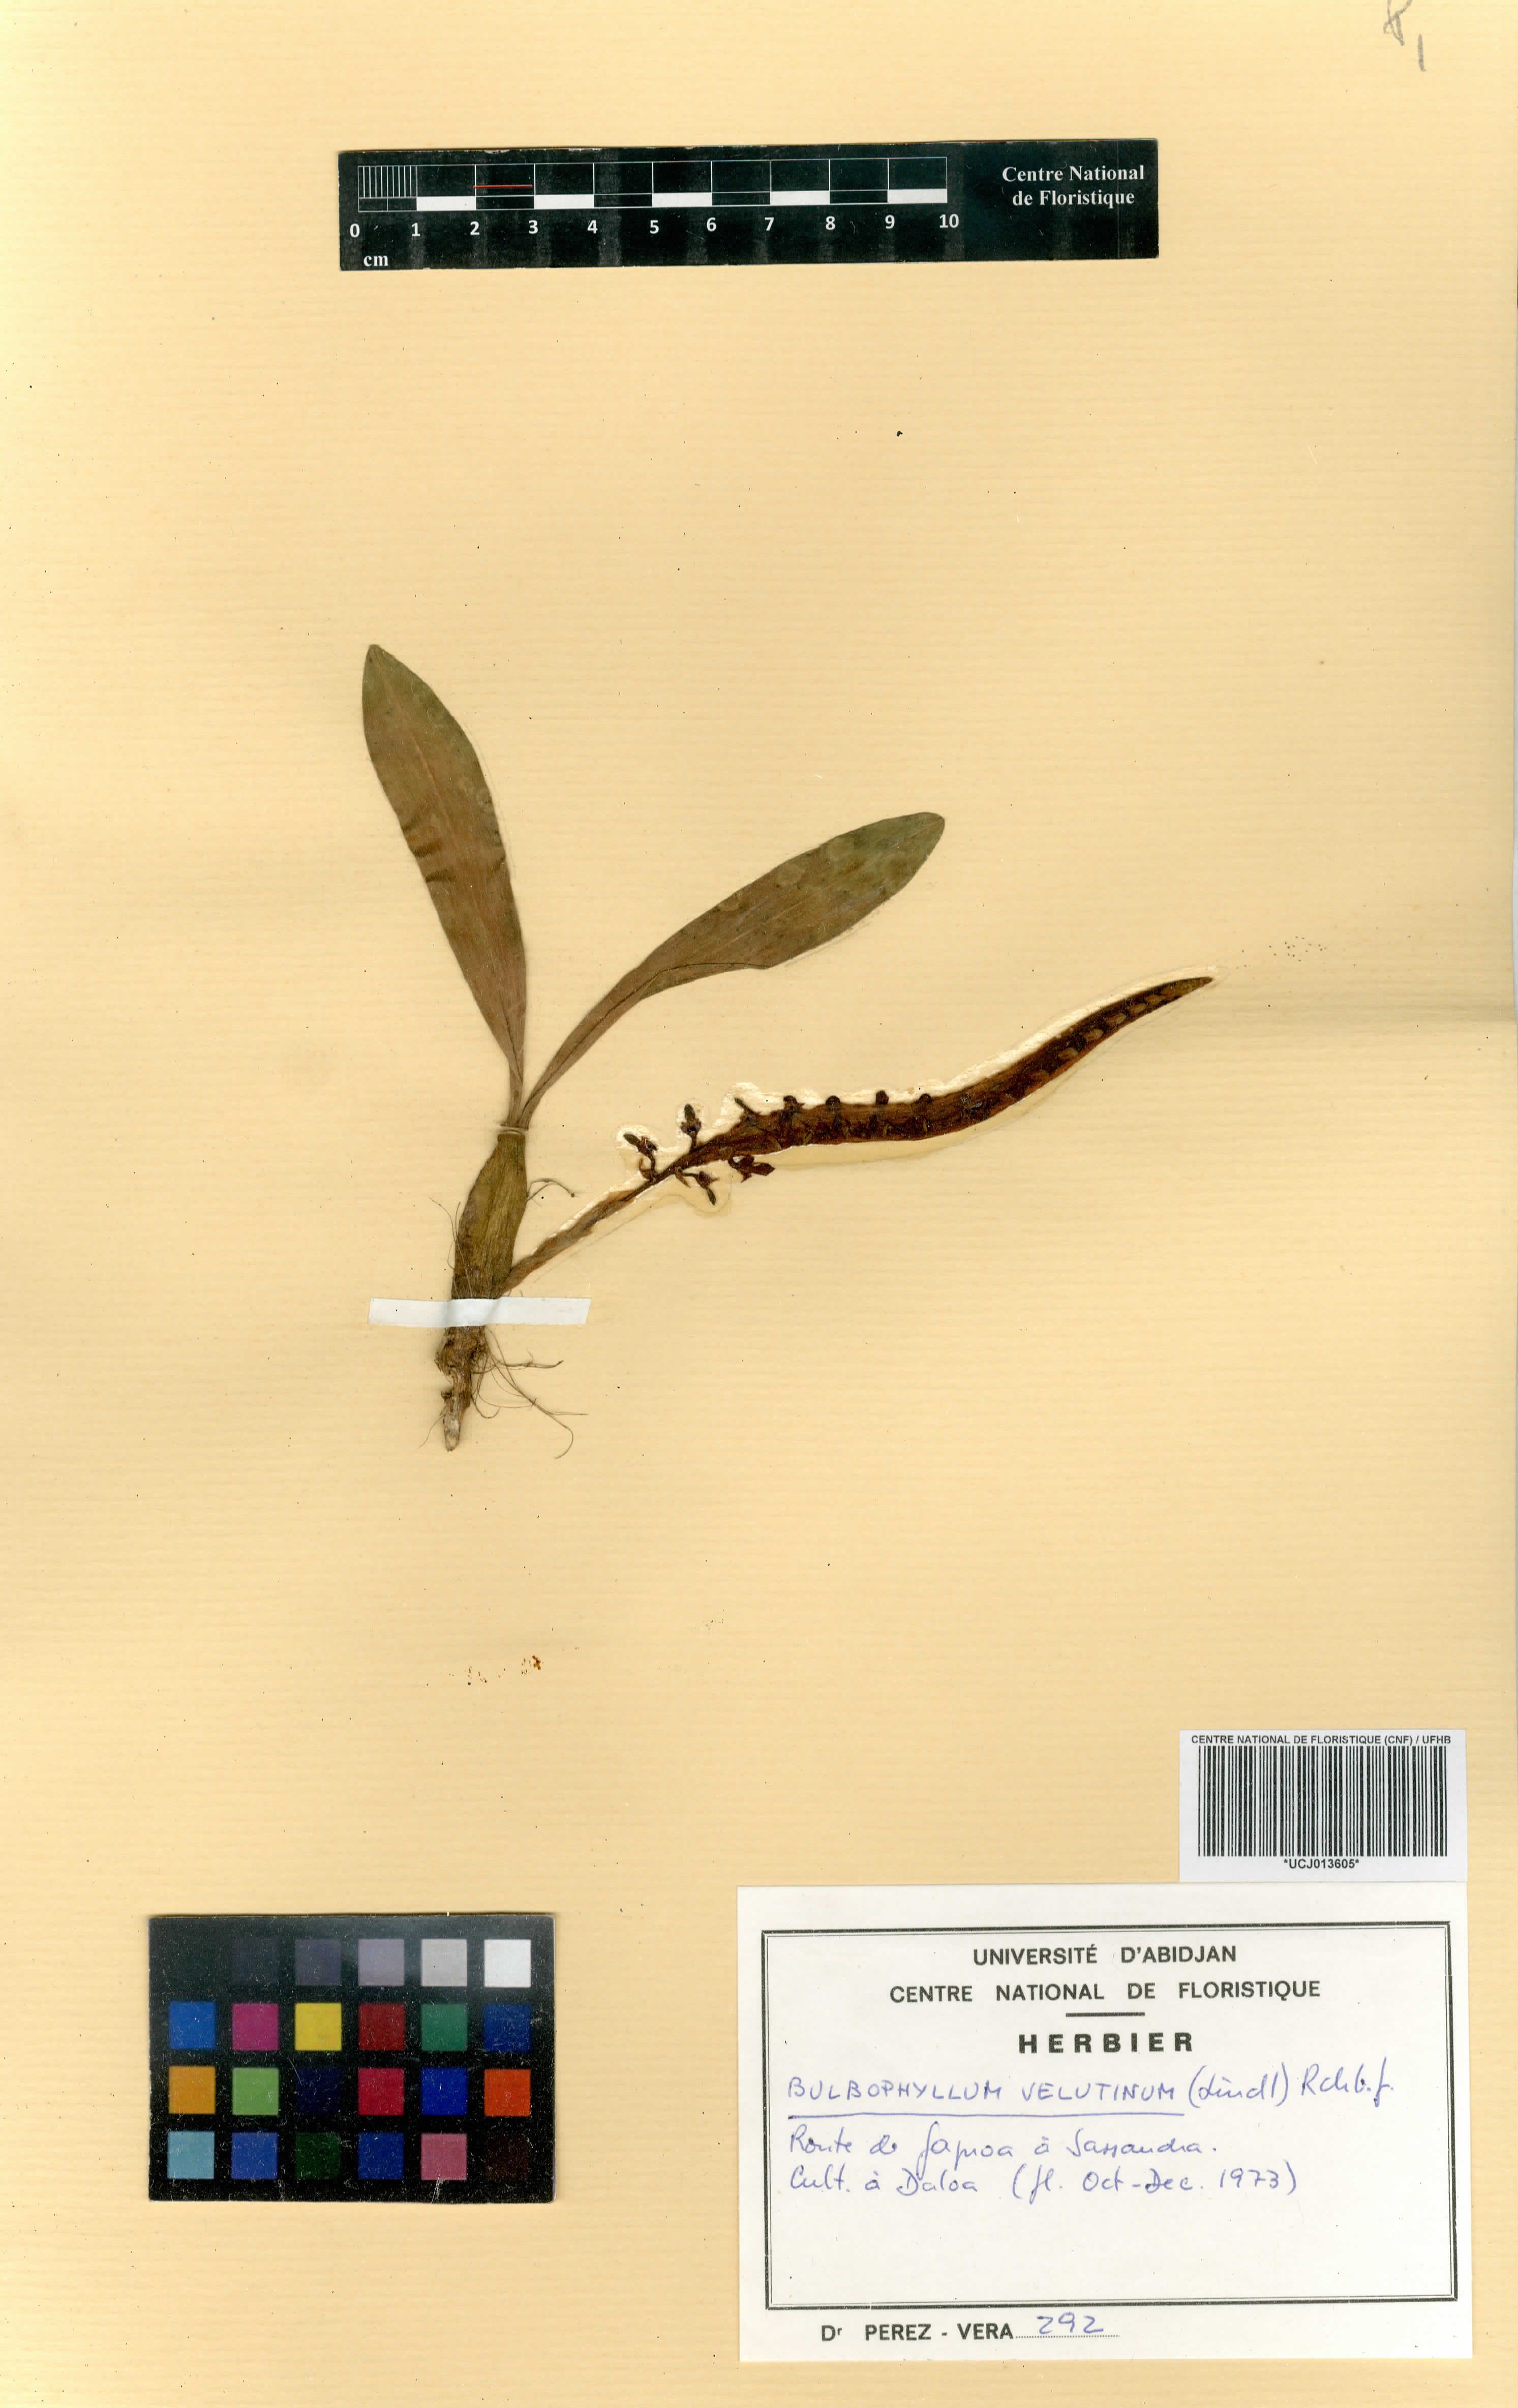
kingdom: Plantae
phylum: Tracheophyta
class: Liliopsida
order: Asparagales
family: Orchidaceae
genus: Bulbophyllum
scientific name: Bulbophyllum falcatum
